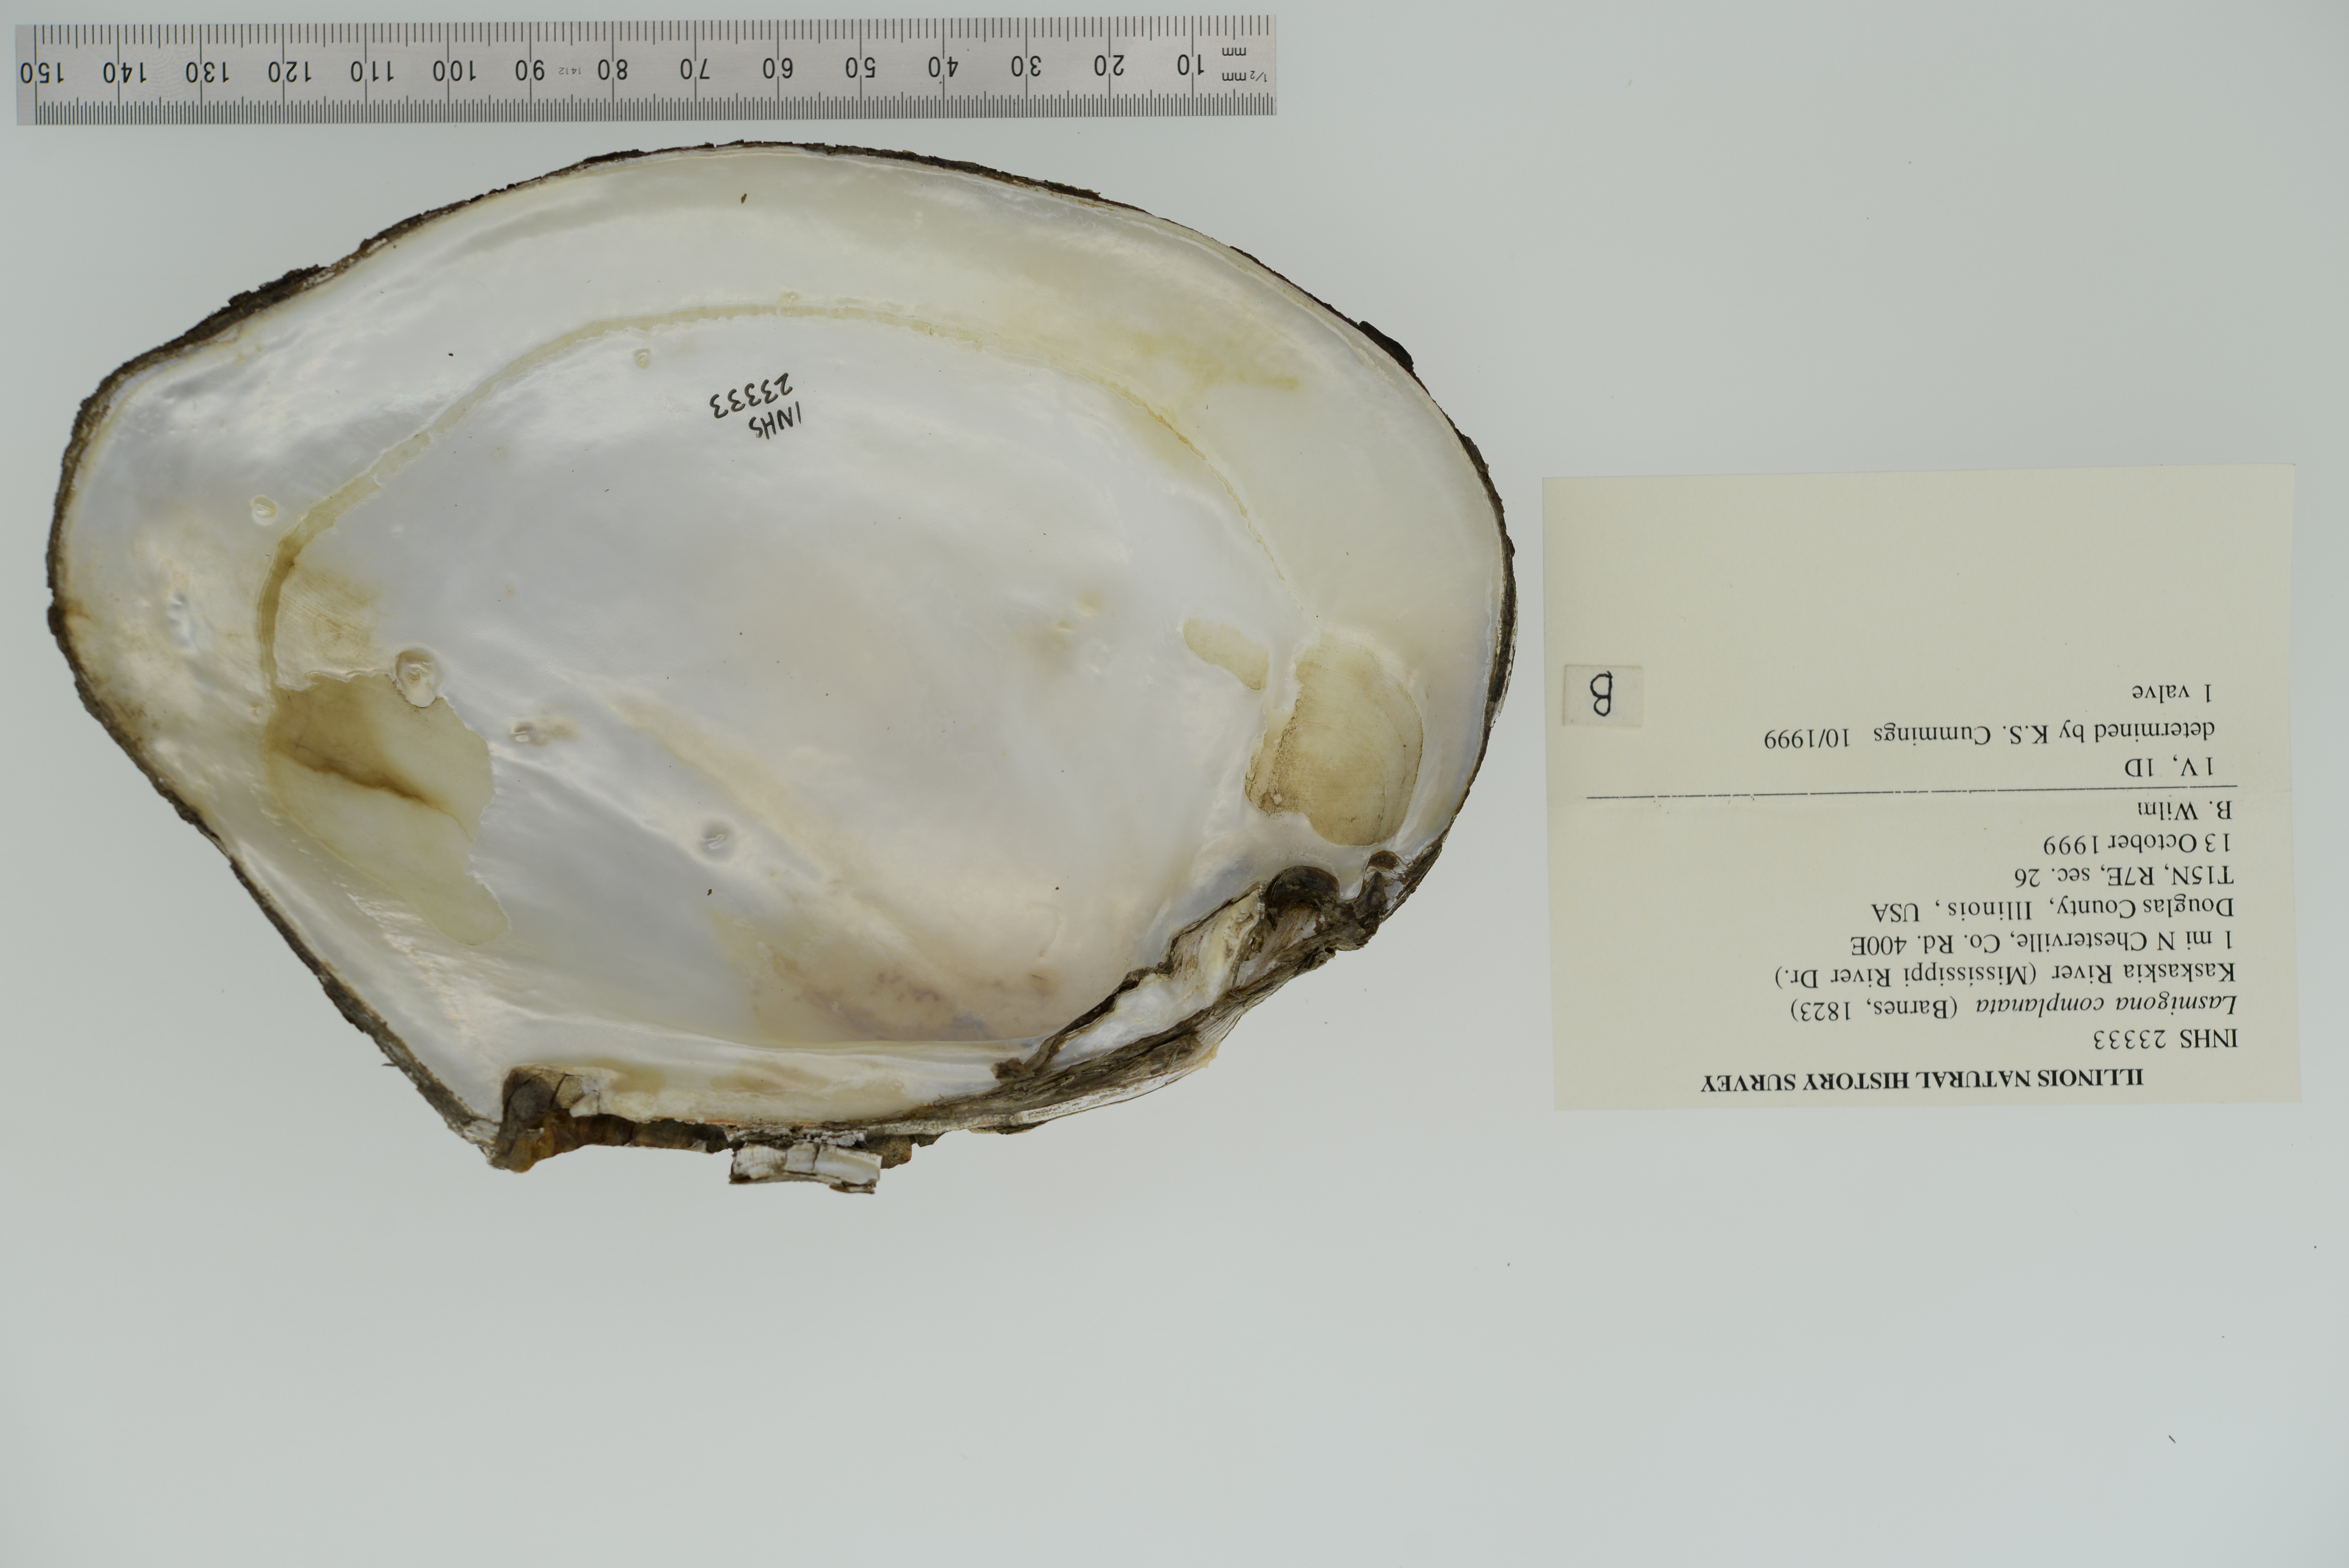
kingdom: Animalia
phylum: Mollusca
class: Bivalvia
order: Unionida
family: Unionidae
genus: Lasmigona
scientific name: Lasmigona complanata
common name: White heelsplitter
